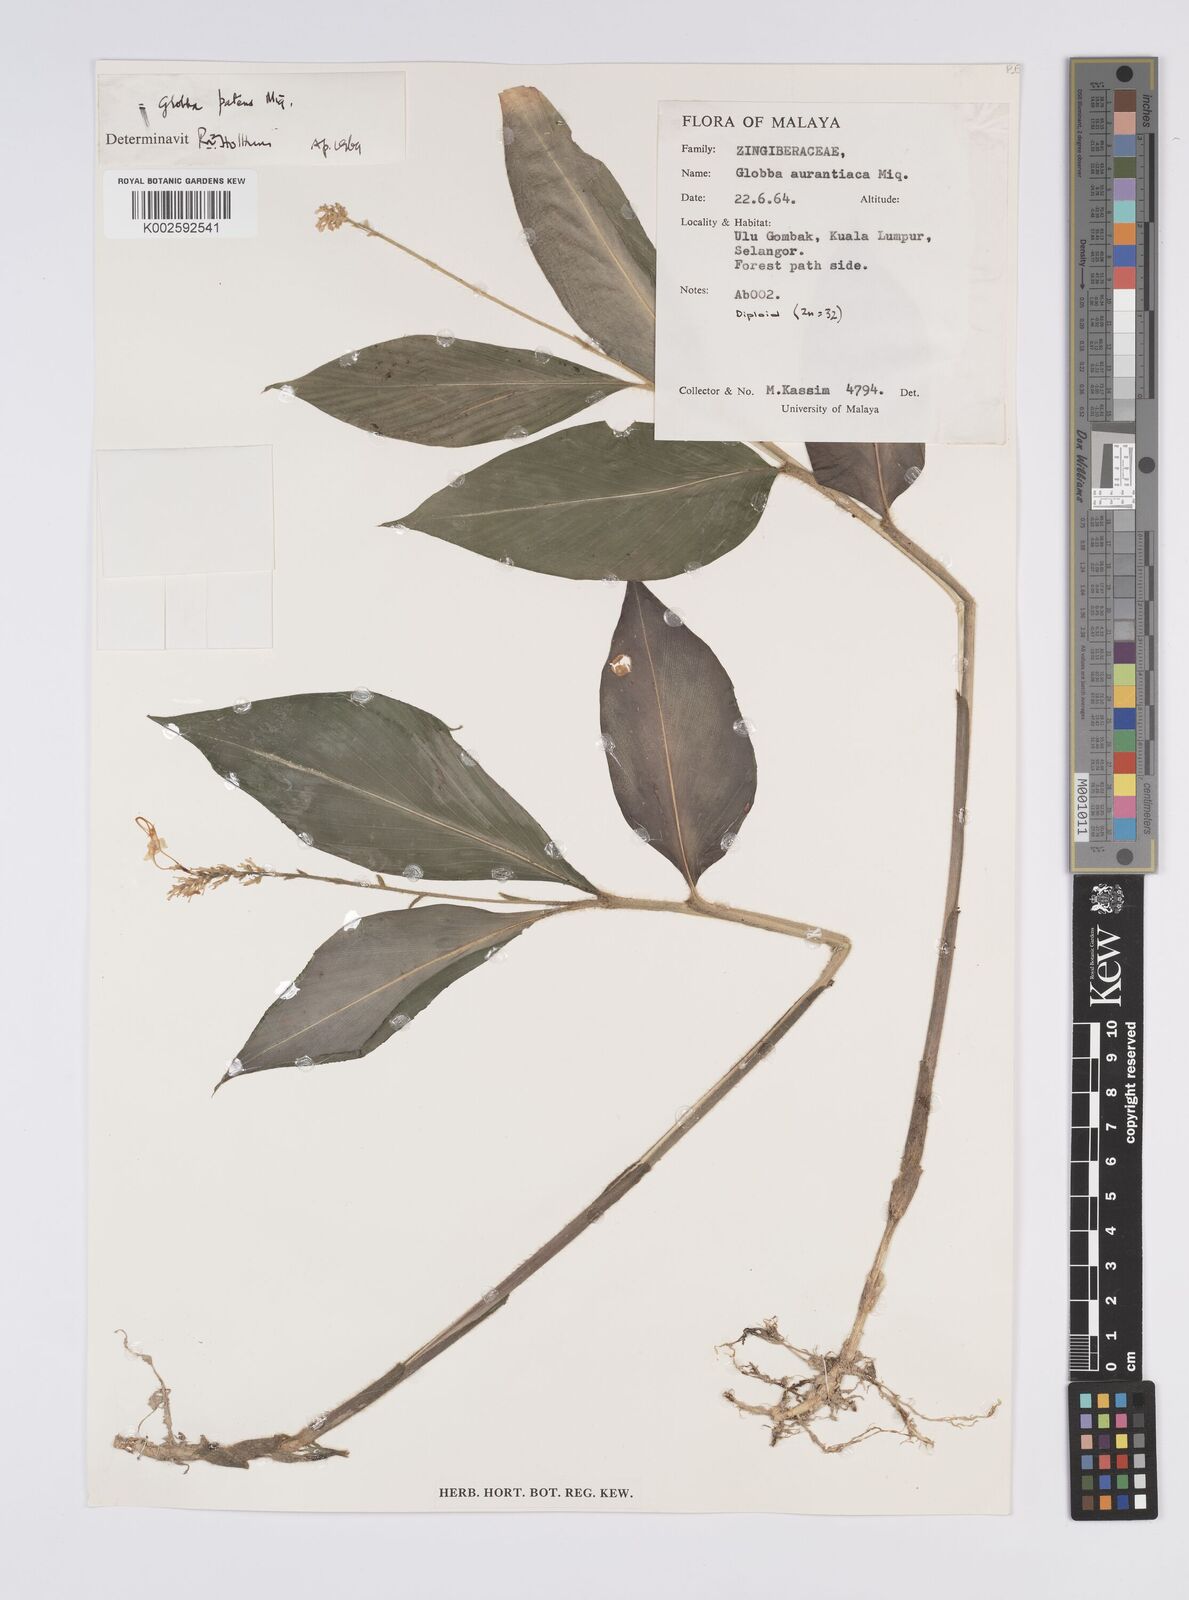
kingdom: Plantae
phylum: Tracheophyta
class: Liliopsida
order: Zingiberales
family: Zingiberaceae
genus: Globba
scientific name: Globba patens
